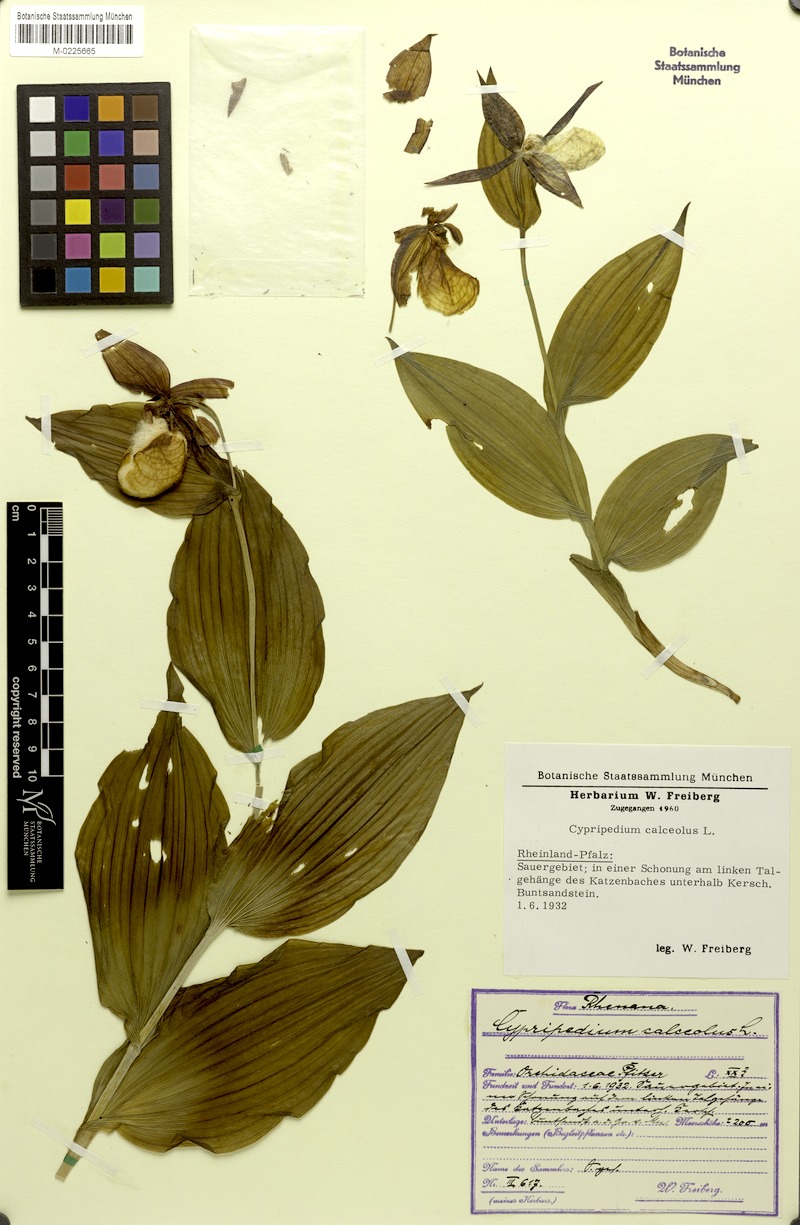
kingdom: Plantae
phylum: Tracheophyta
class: Liliopsida
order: Asparagales
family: Orchidaceae
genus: Cypripedium
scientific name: Cypripedium calceolus
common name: Lady's-slipper
